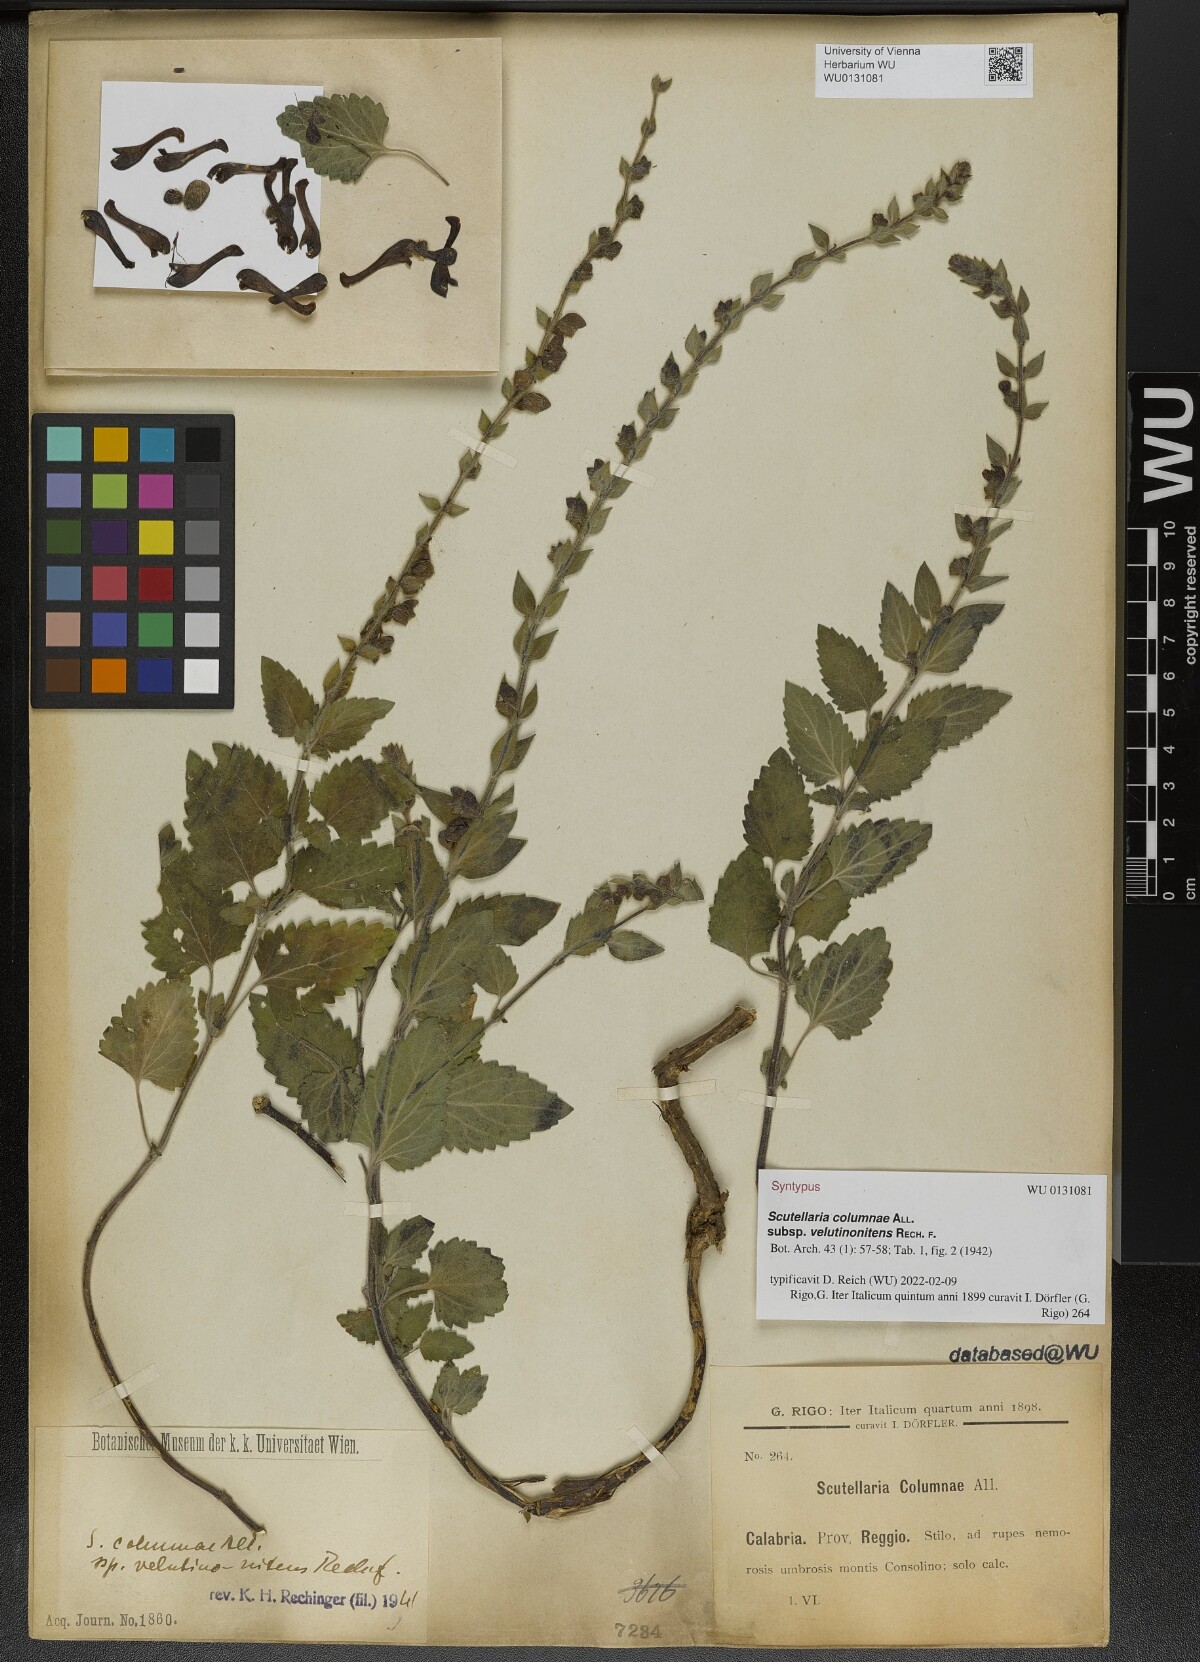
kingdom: Plantae
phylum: Tracheophyta
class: Magnoliopsida
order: Lamiales
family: Lamiaceae
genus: Scutellaria
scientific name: Scutellaria columnae
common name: Large skullcap
